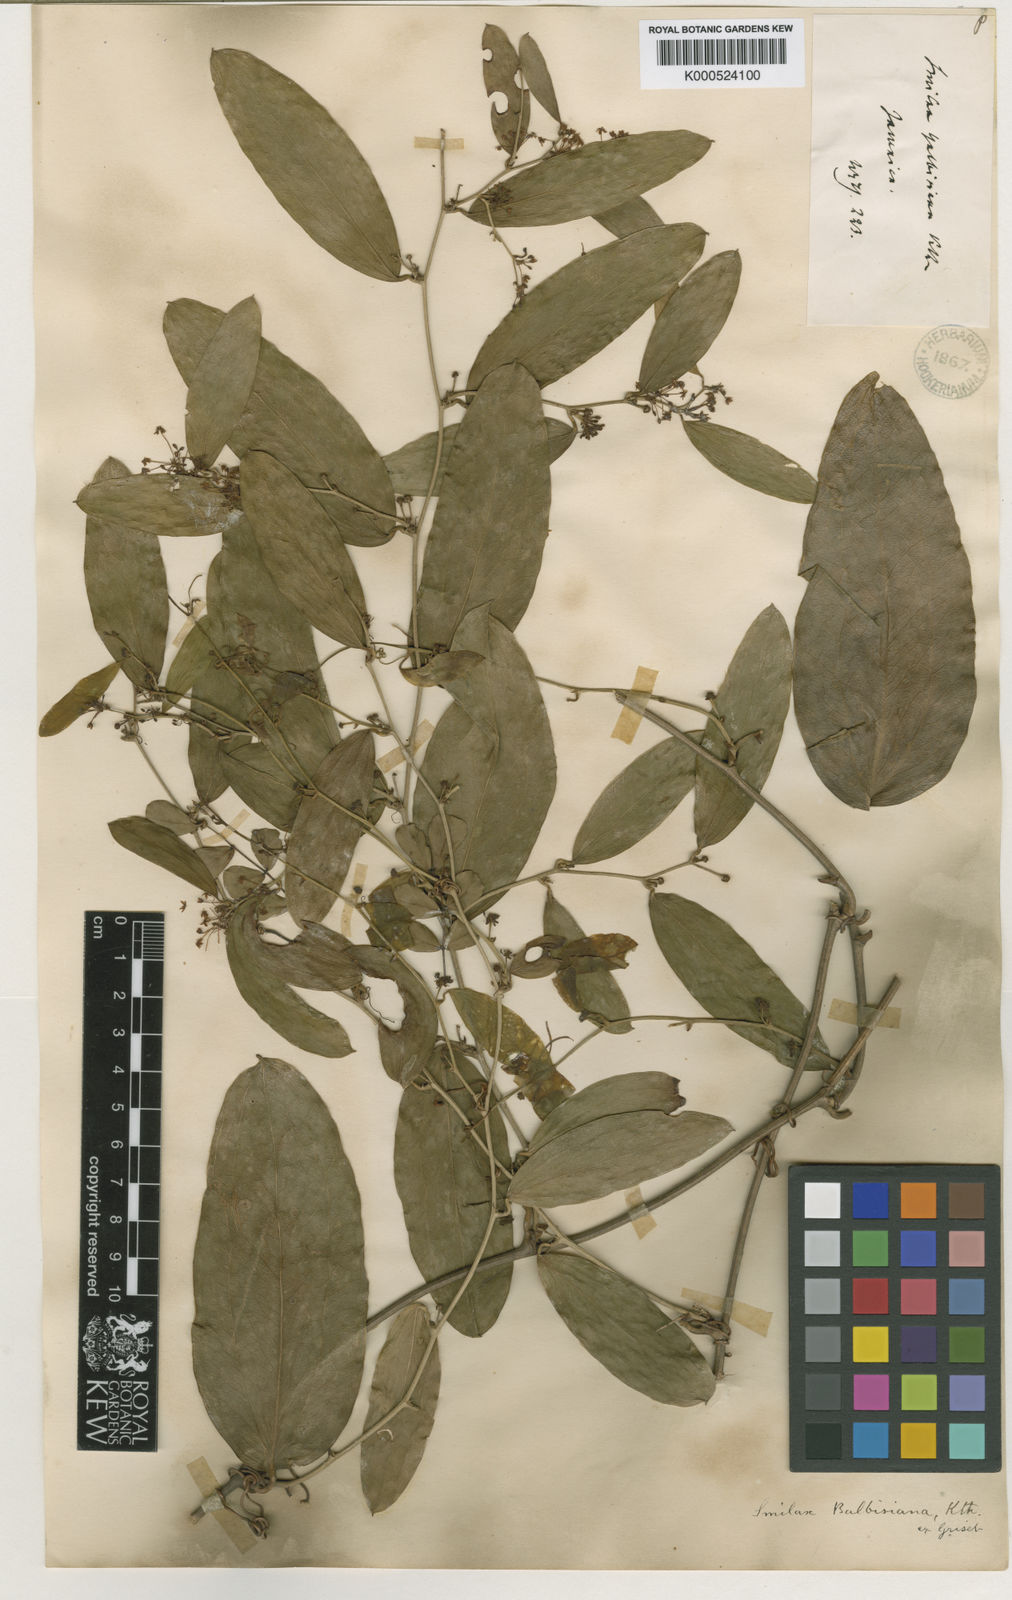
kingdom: Plantae
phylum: Tracheophyta
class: Liliopsida
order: Liliales
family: Smilacaceae
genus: Smilax
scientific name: Smilax domingensis
